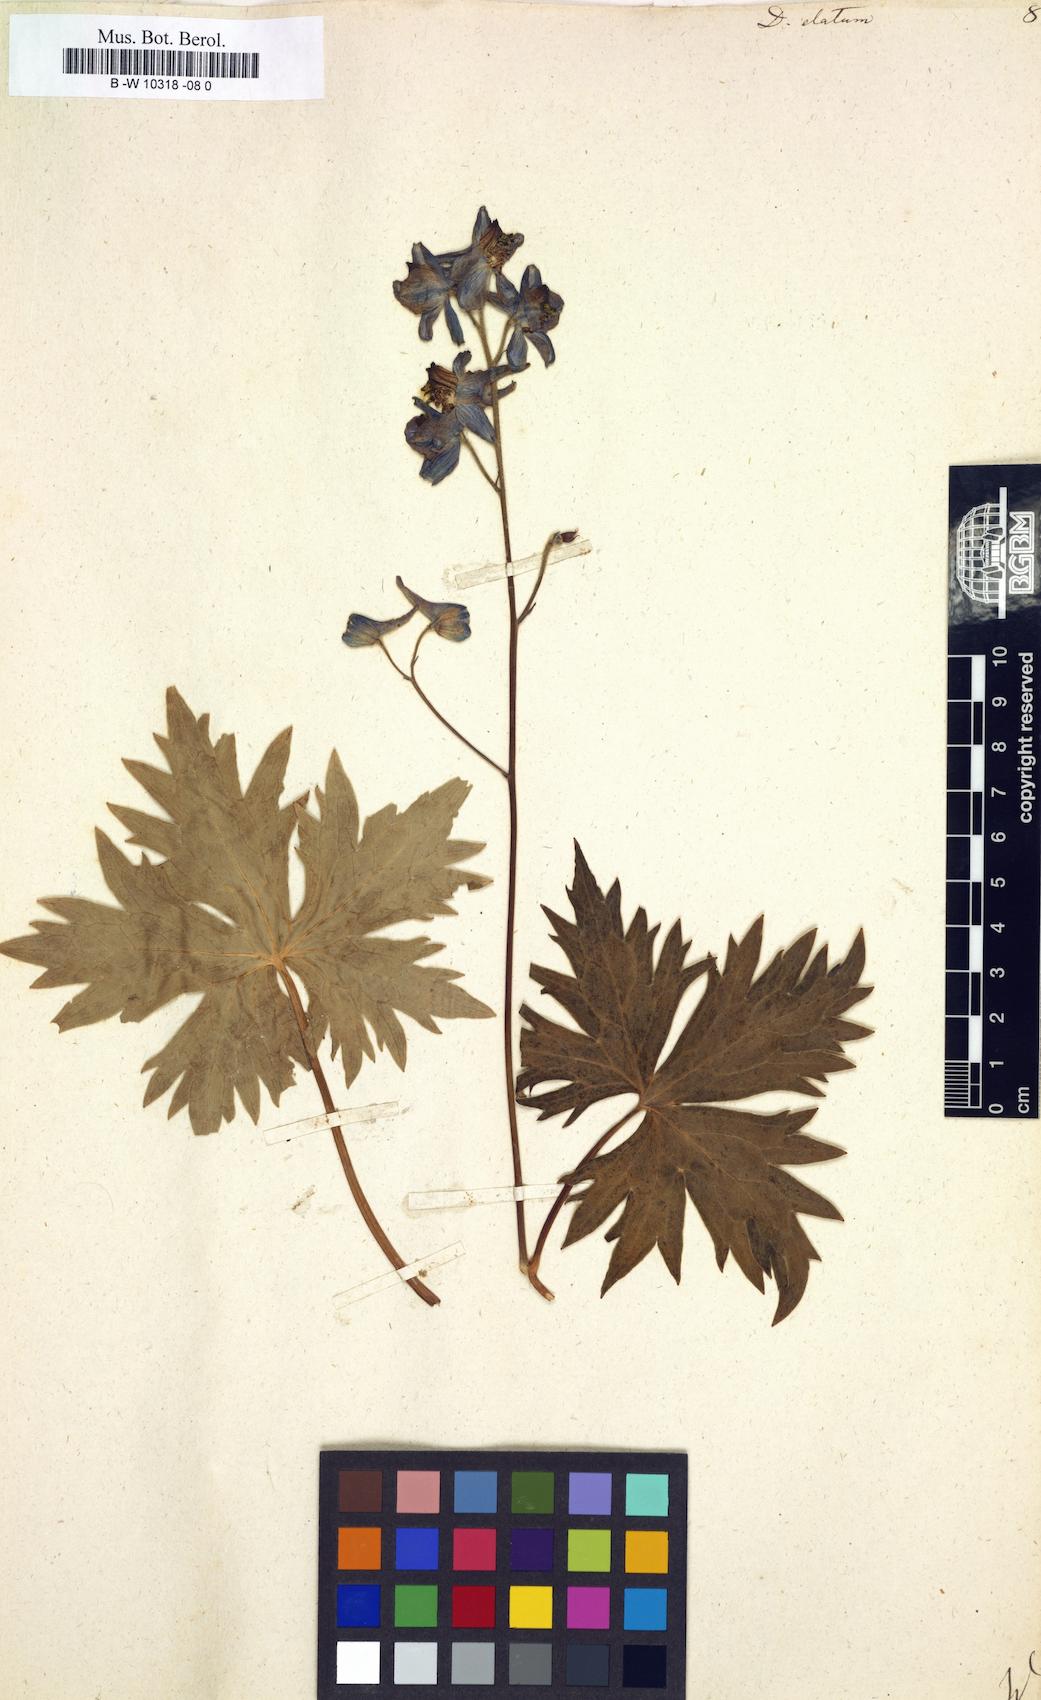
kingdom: Plantae
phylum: Tracheophyta
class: Magnoliopsida
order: Ranunculales
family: Ranunculaceae
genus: Delphinium
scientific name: Delphinium elatum
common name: Candle larkspur
